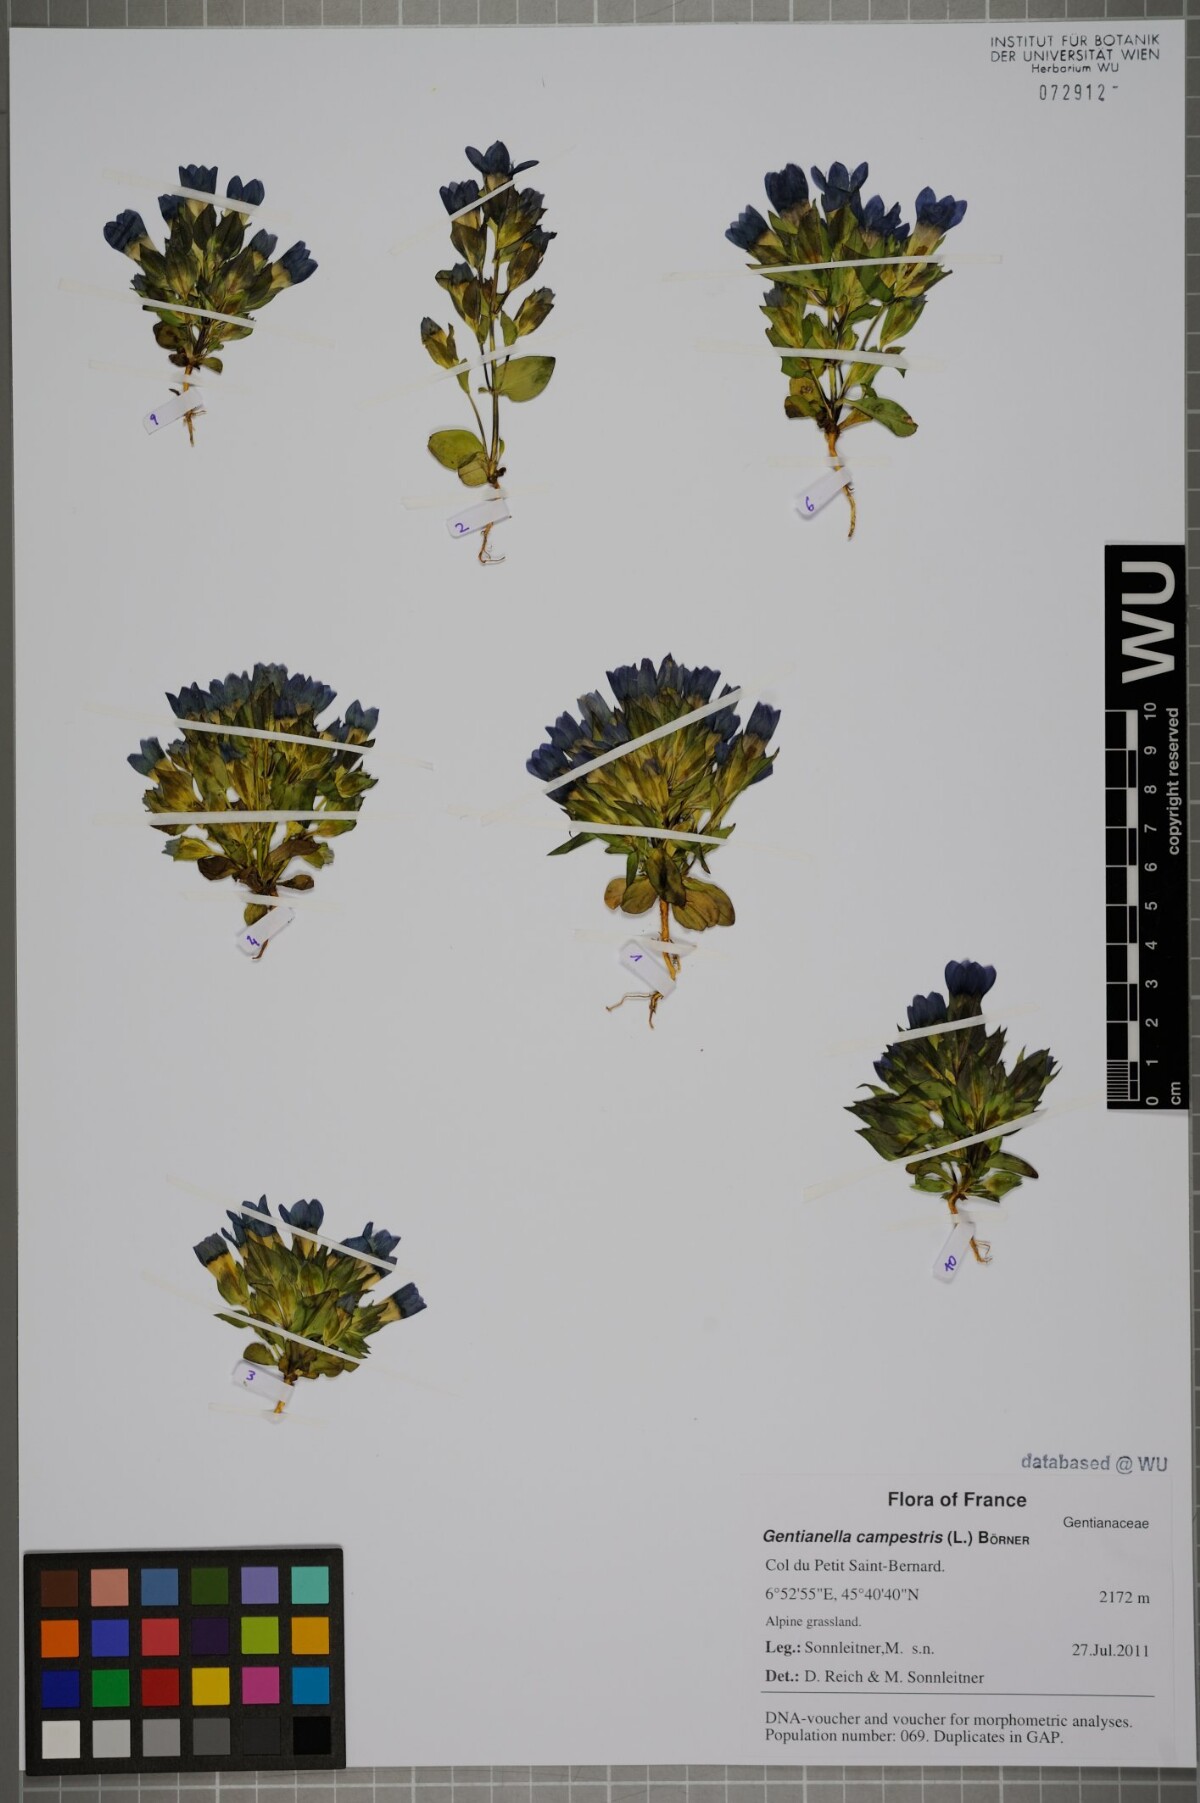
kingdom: Plantae
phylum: Tracheophyta
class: Magnoliopsida
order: Gentianales
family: Gentianaceae
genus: Gentianella
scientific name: Gentianella campestris
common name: Field gentian
